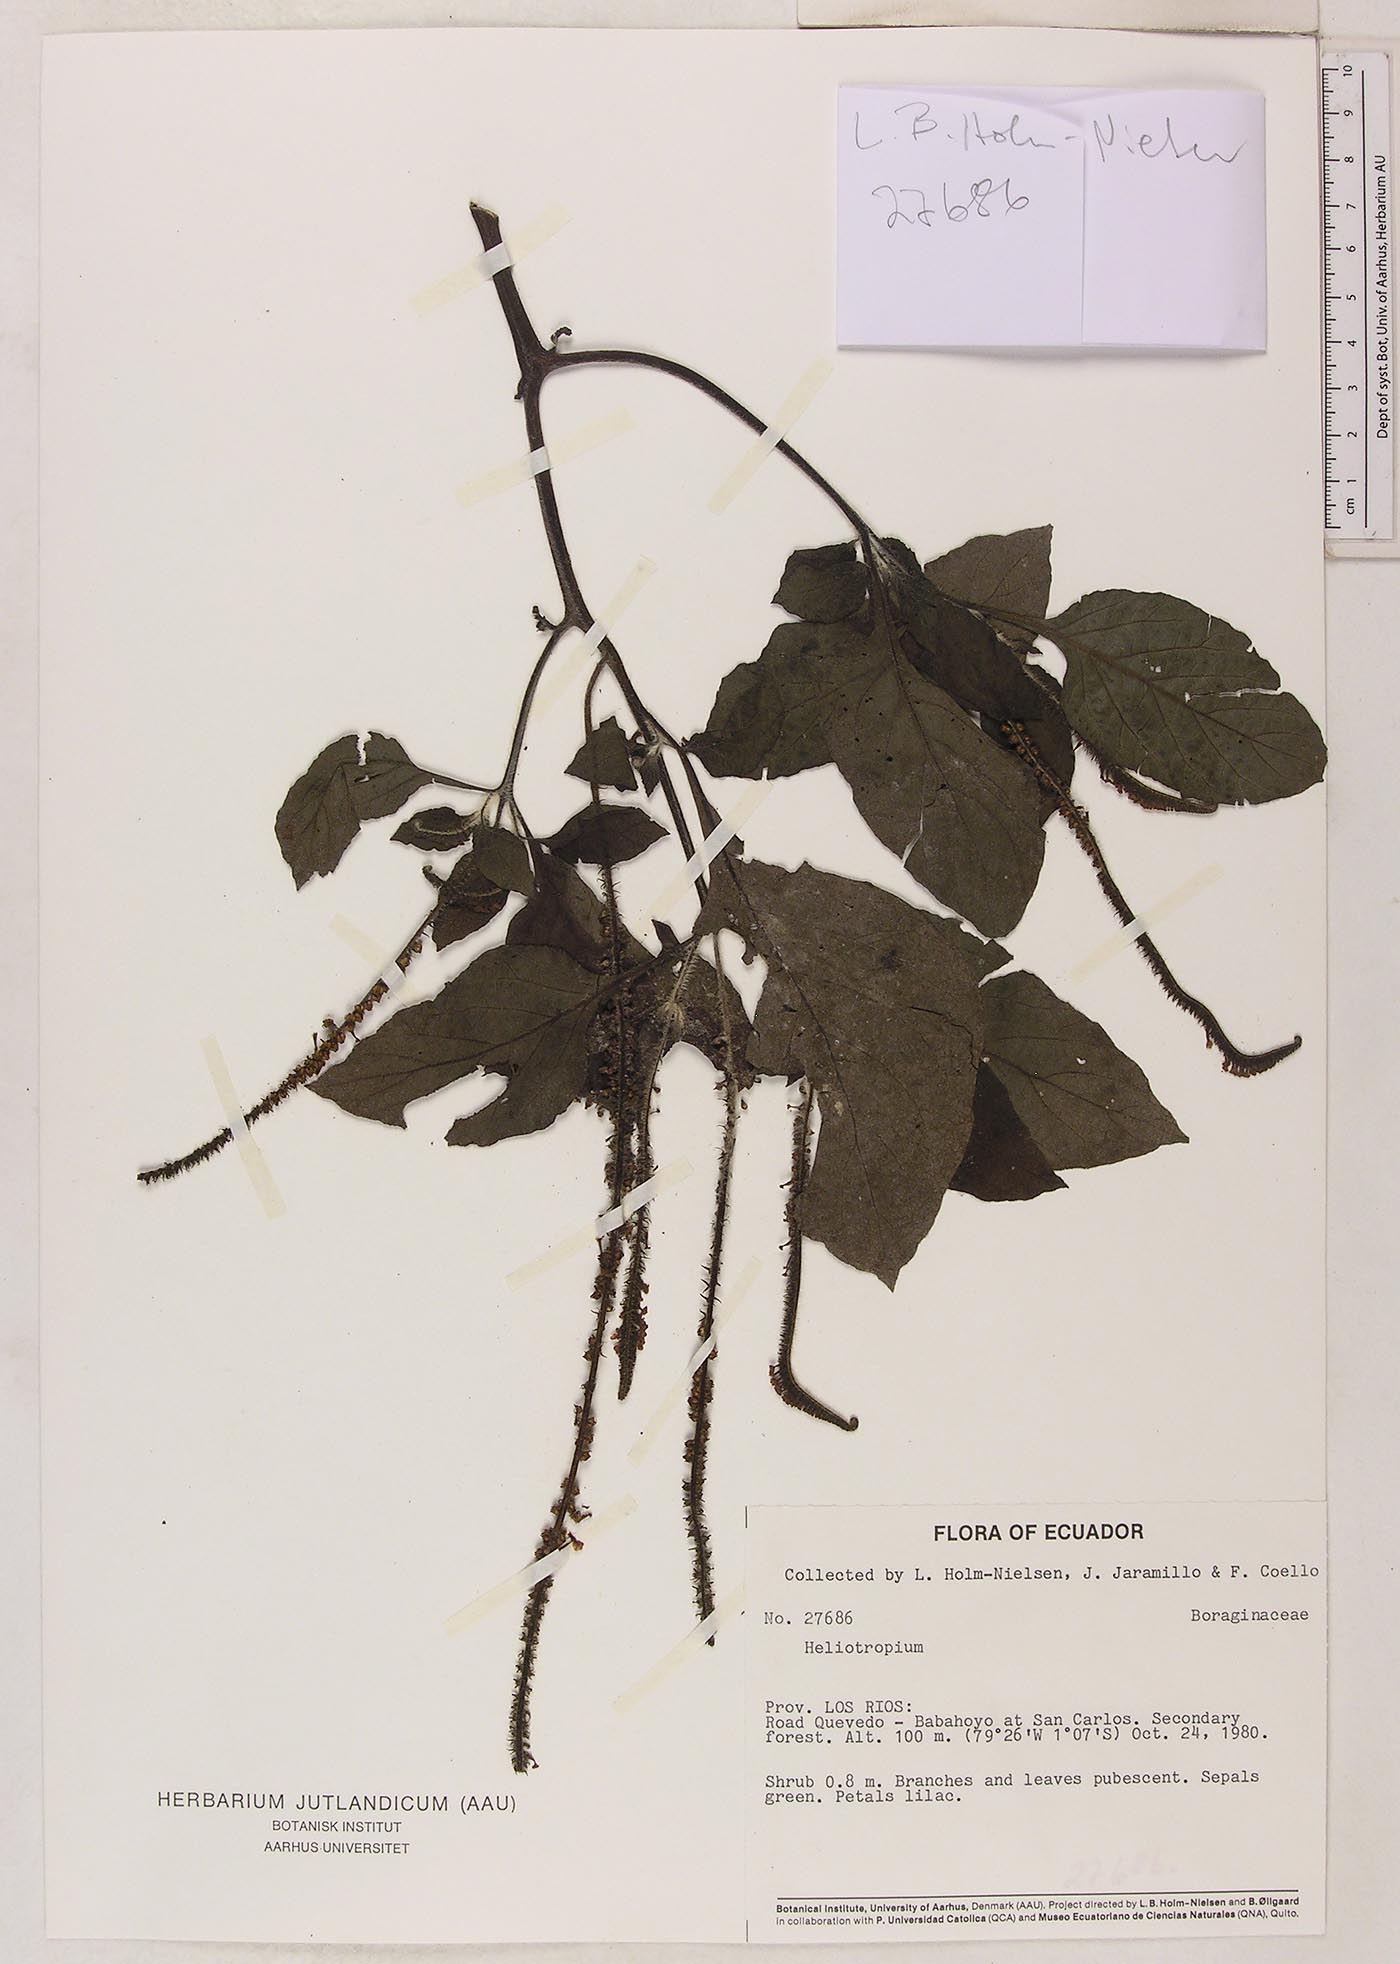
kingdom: Plantae
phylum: Tracheophyta
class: Magnoliopsida
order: Boraginales
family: Heliotropiaceae
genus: Heliotropium
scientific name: Heliotropium indicum
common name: Indian heliotrope
